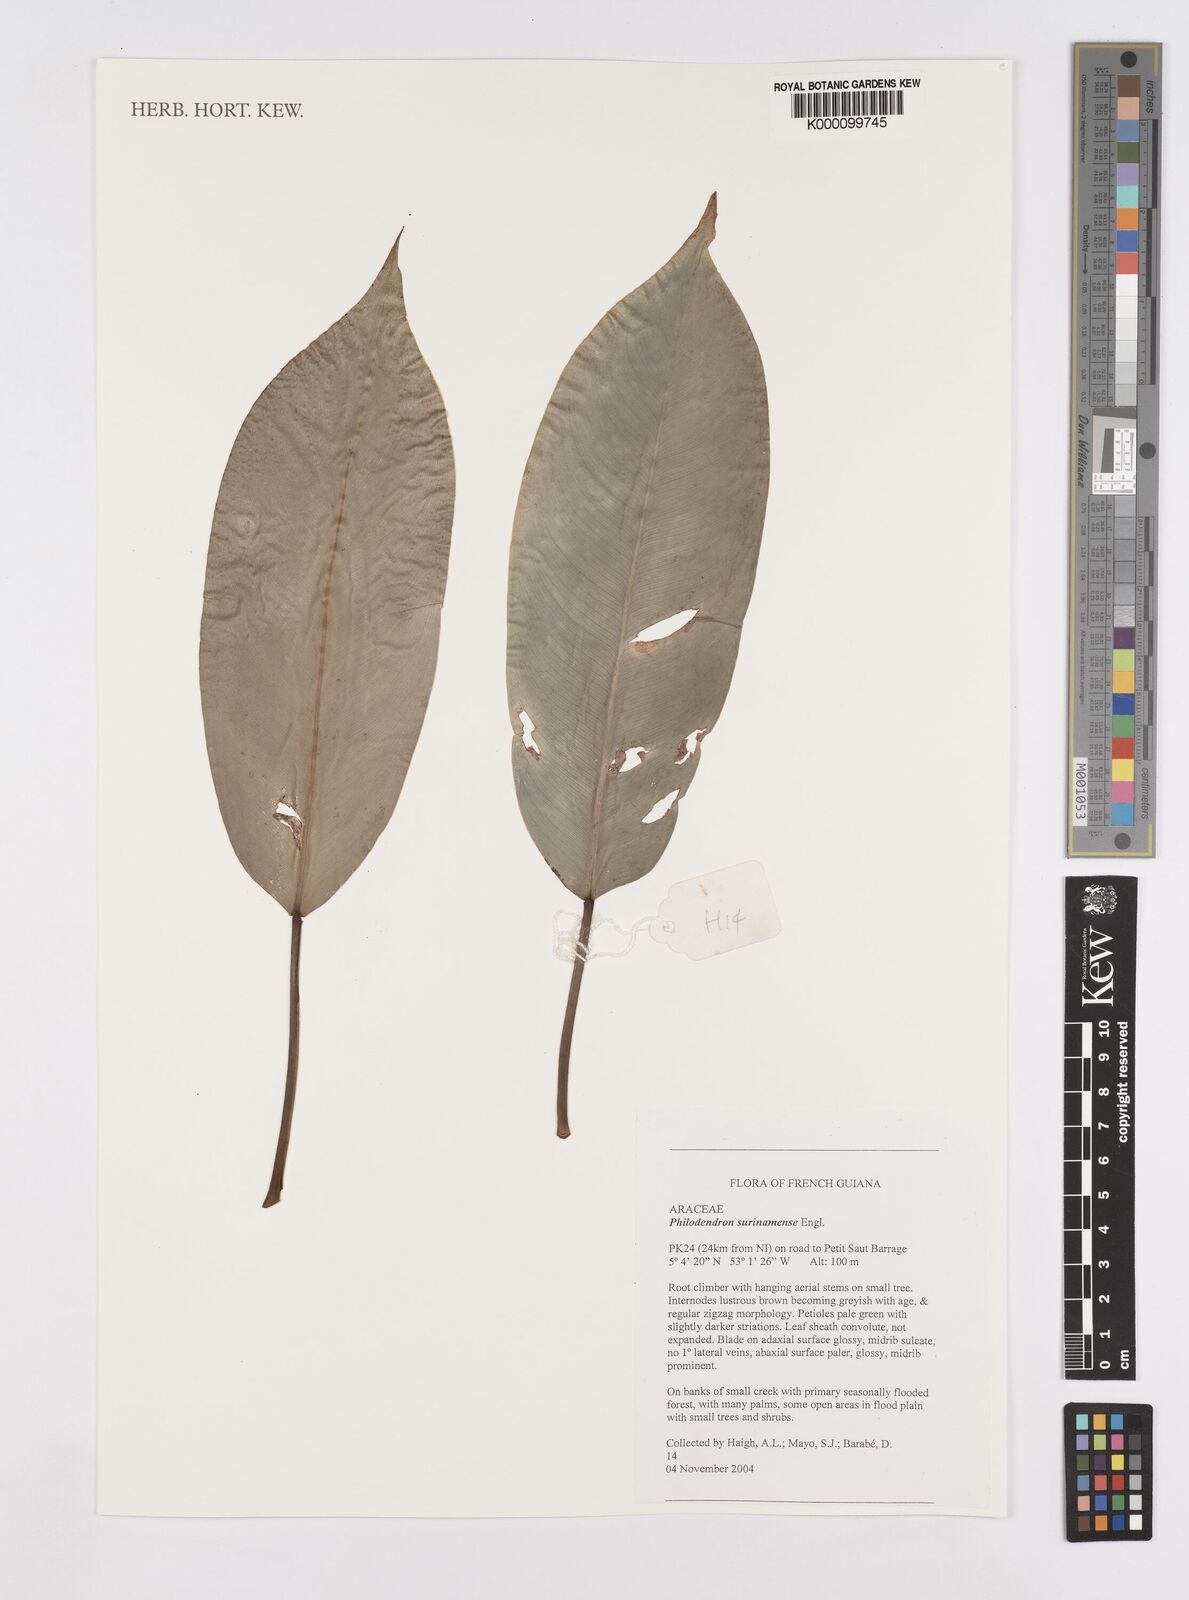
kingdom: Plantae
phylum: Tracheophyta
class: Liliopsida
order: Alismatales
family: Araceae
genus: Philodendron
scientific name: Philodendron surinamense
